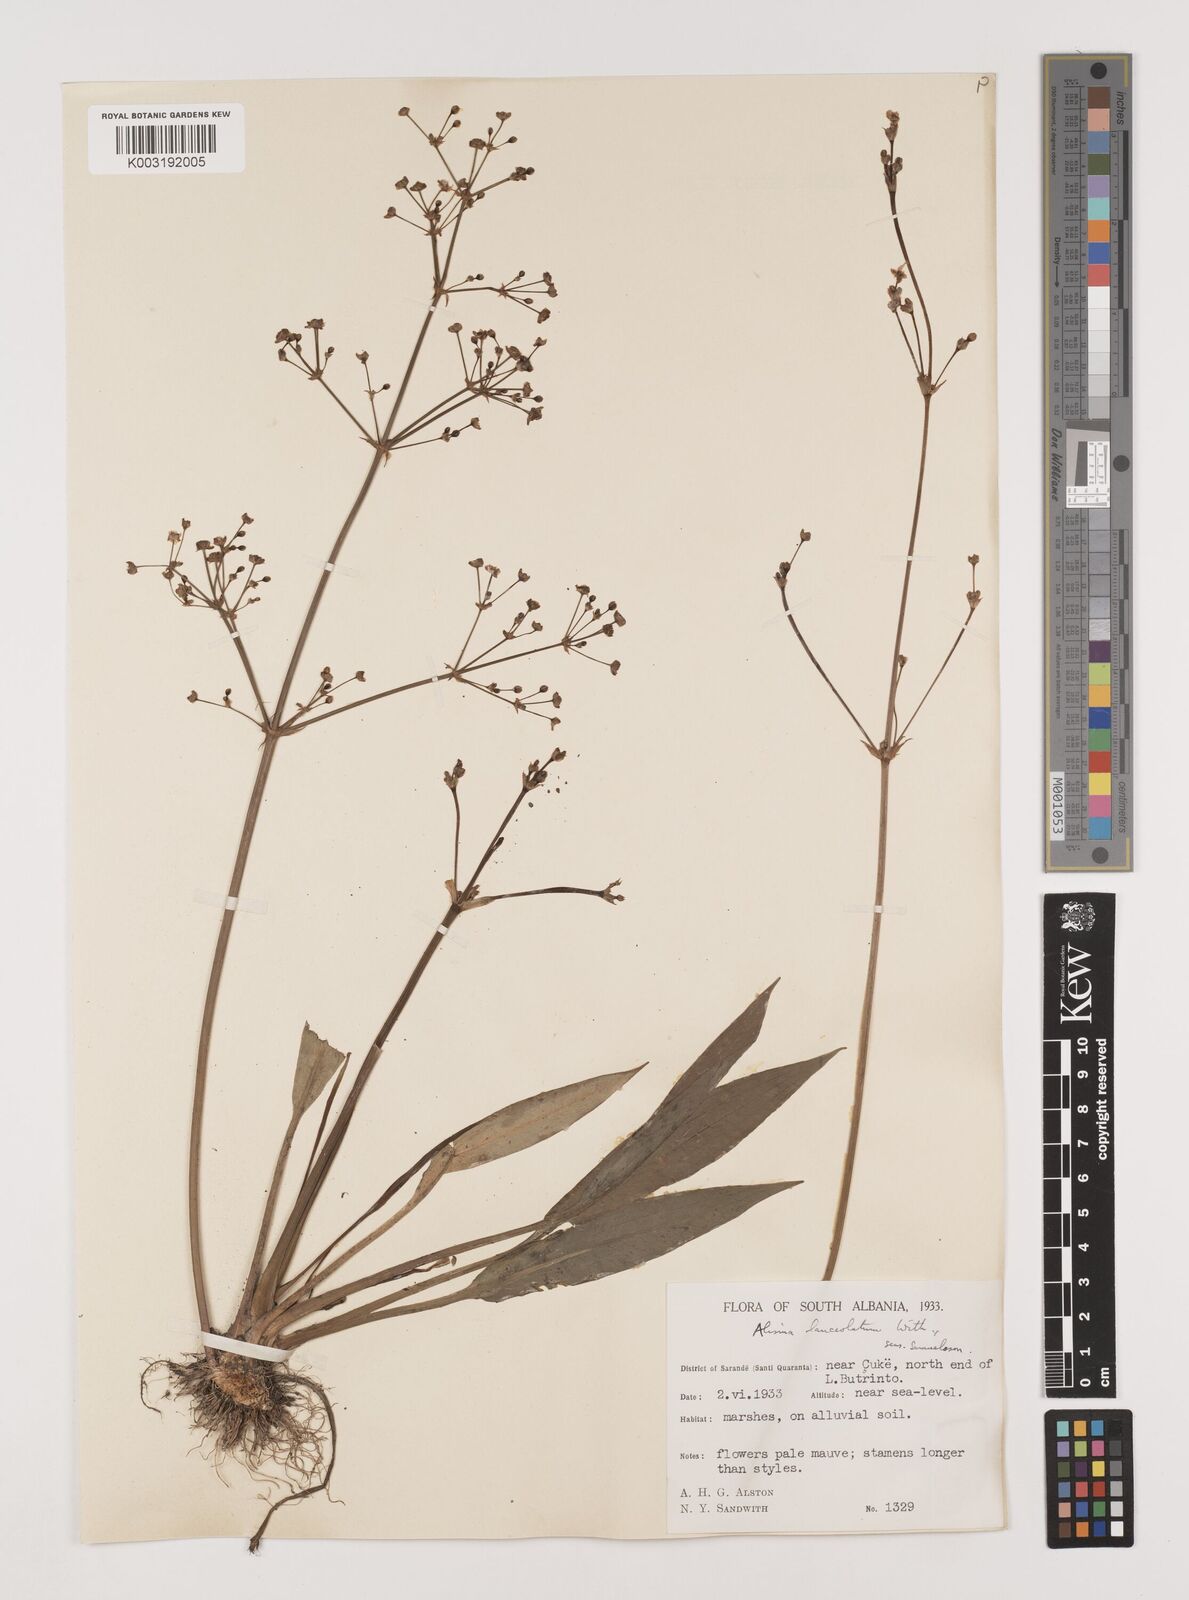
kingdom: Plantae
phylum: Tracheophyta
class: Liliopsida
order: Alismatales
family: Alismataceae
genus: Alisma
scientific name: Alisma lanceolatum
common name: Narrow-leaved water-plantain
